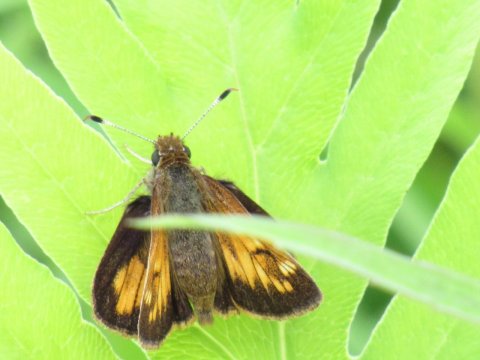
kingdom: Animalia
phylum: Arthropoda
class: Insecta
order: Lepidoptera
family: Hesperiidae
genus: Lon
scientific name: Lon hobomok
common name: Hobomok Skipper
